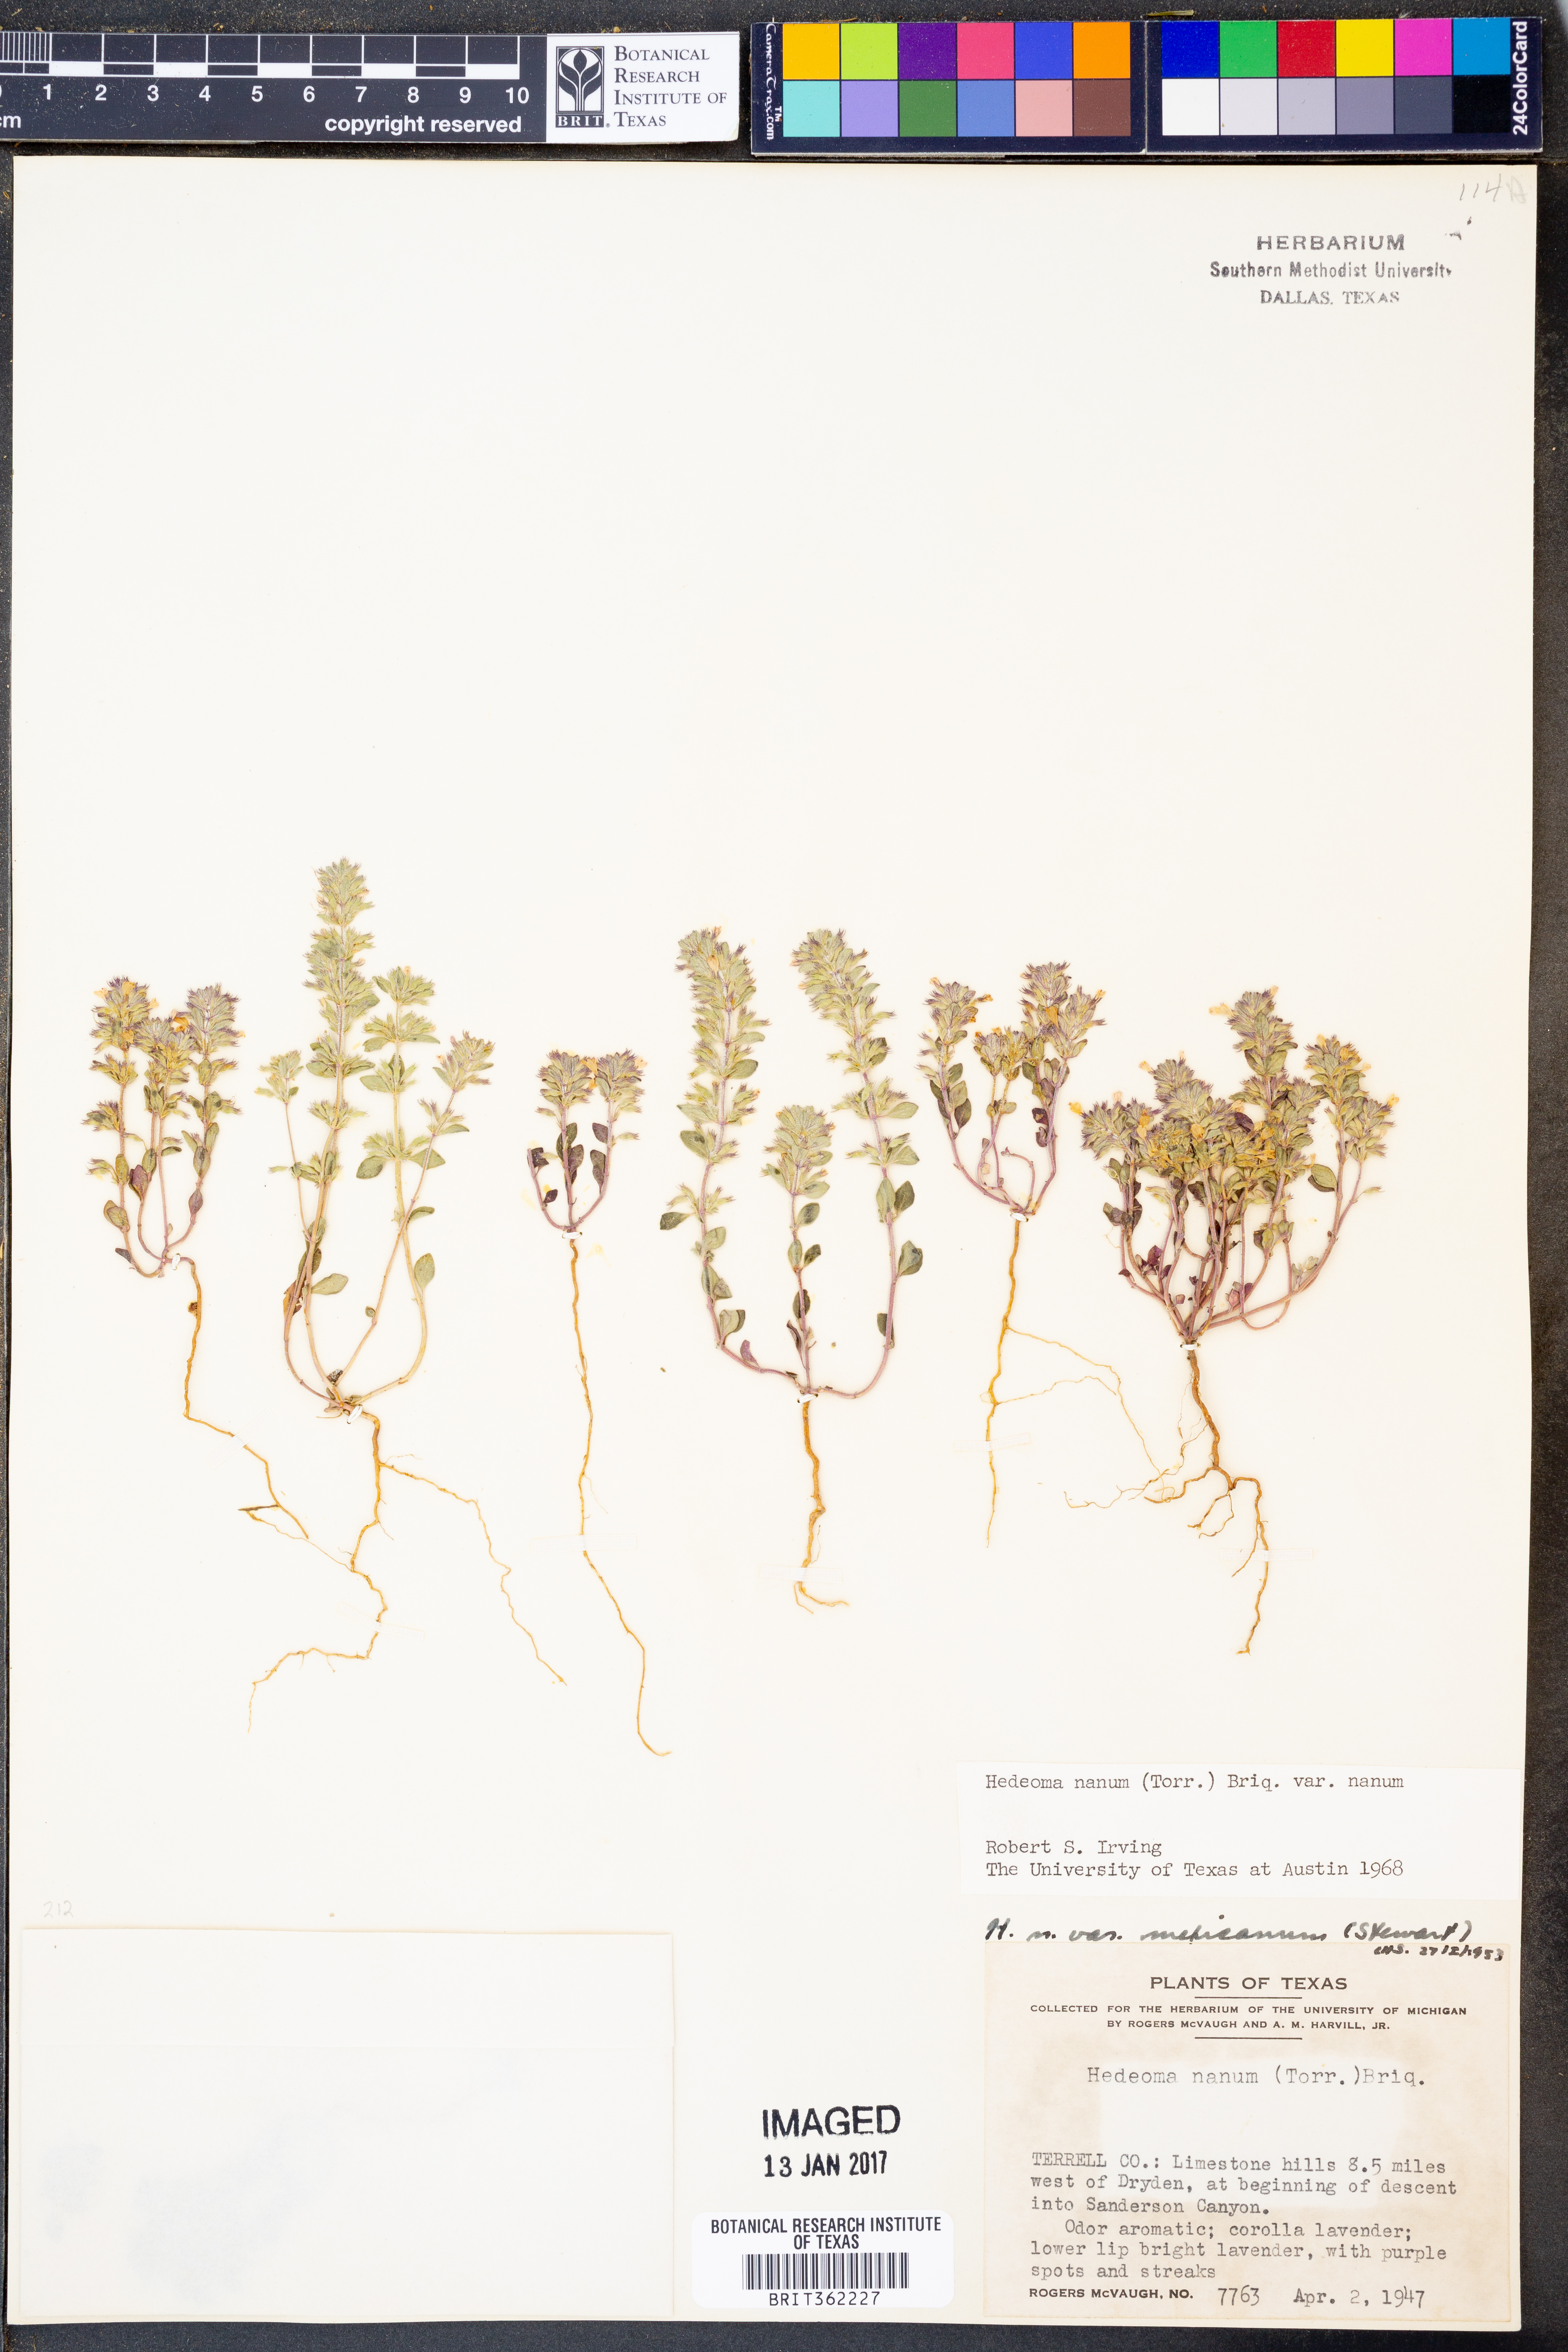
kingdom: Plantae
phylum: Tracheophyta
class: Magnoliopsida
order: Lamiales
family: Lamiaceae
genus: Hedeoma
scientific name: Hedeoma nana
